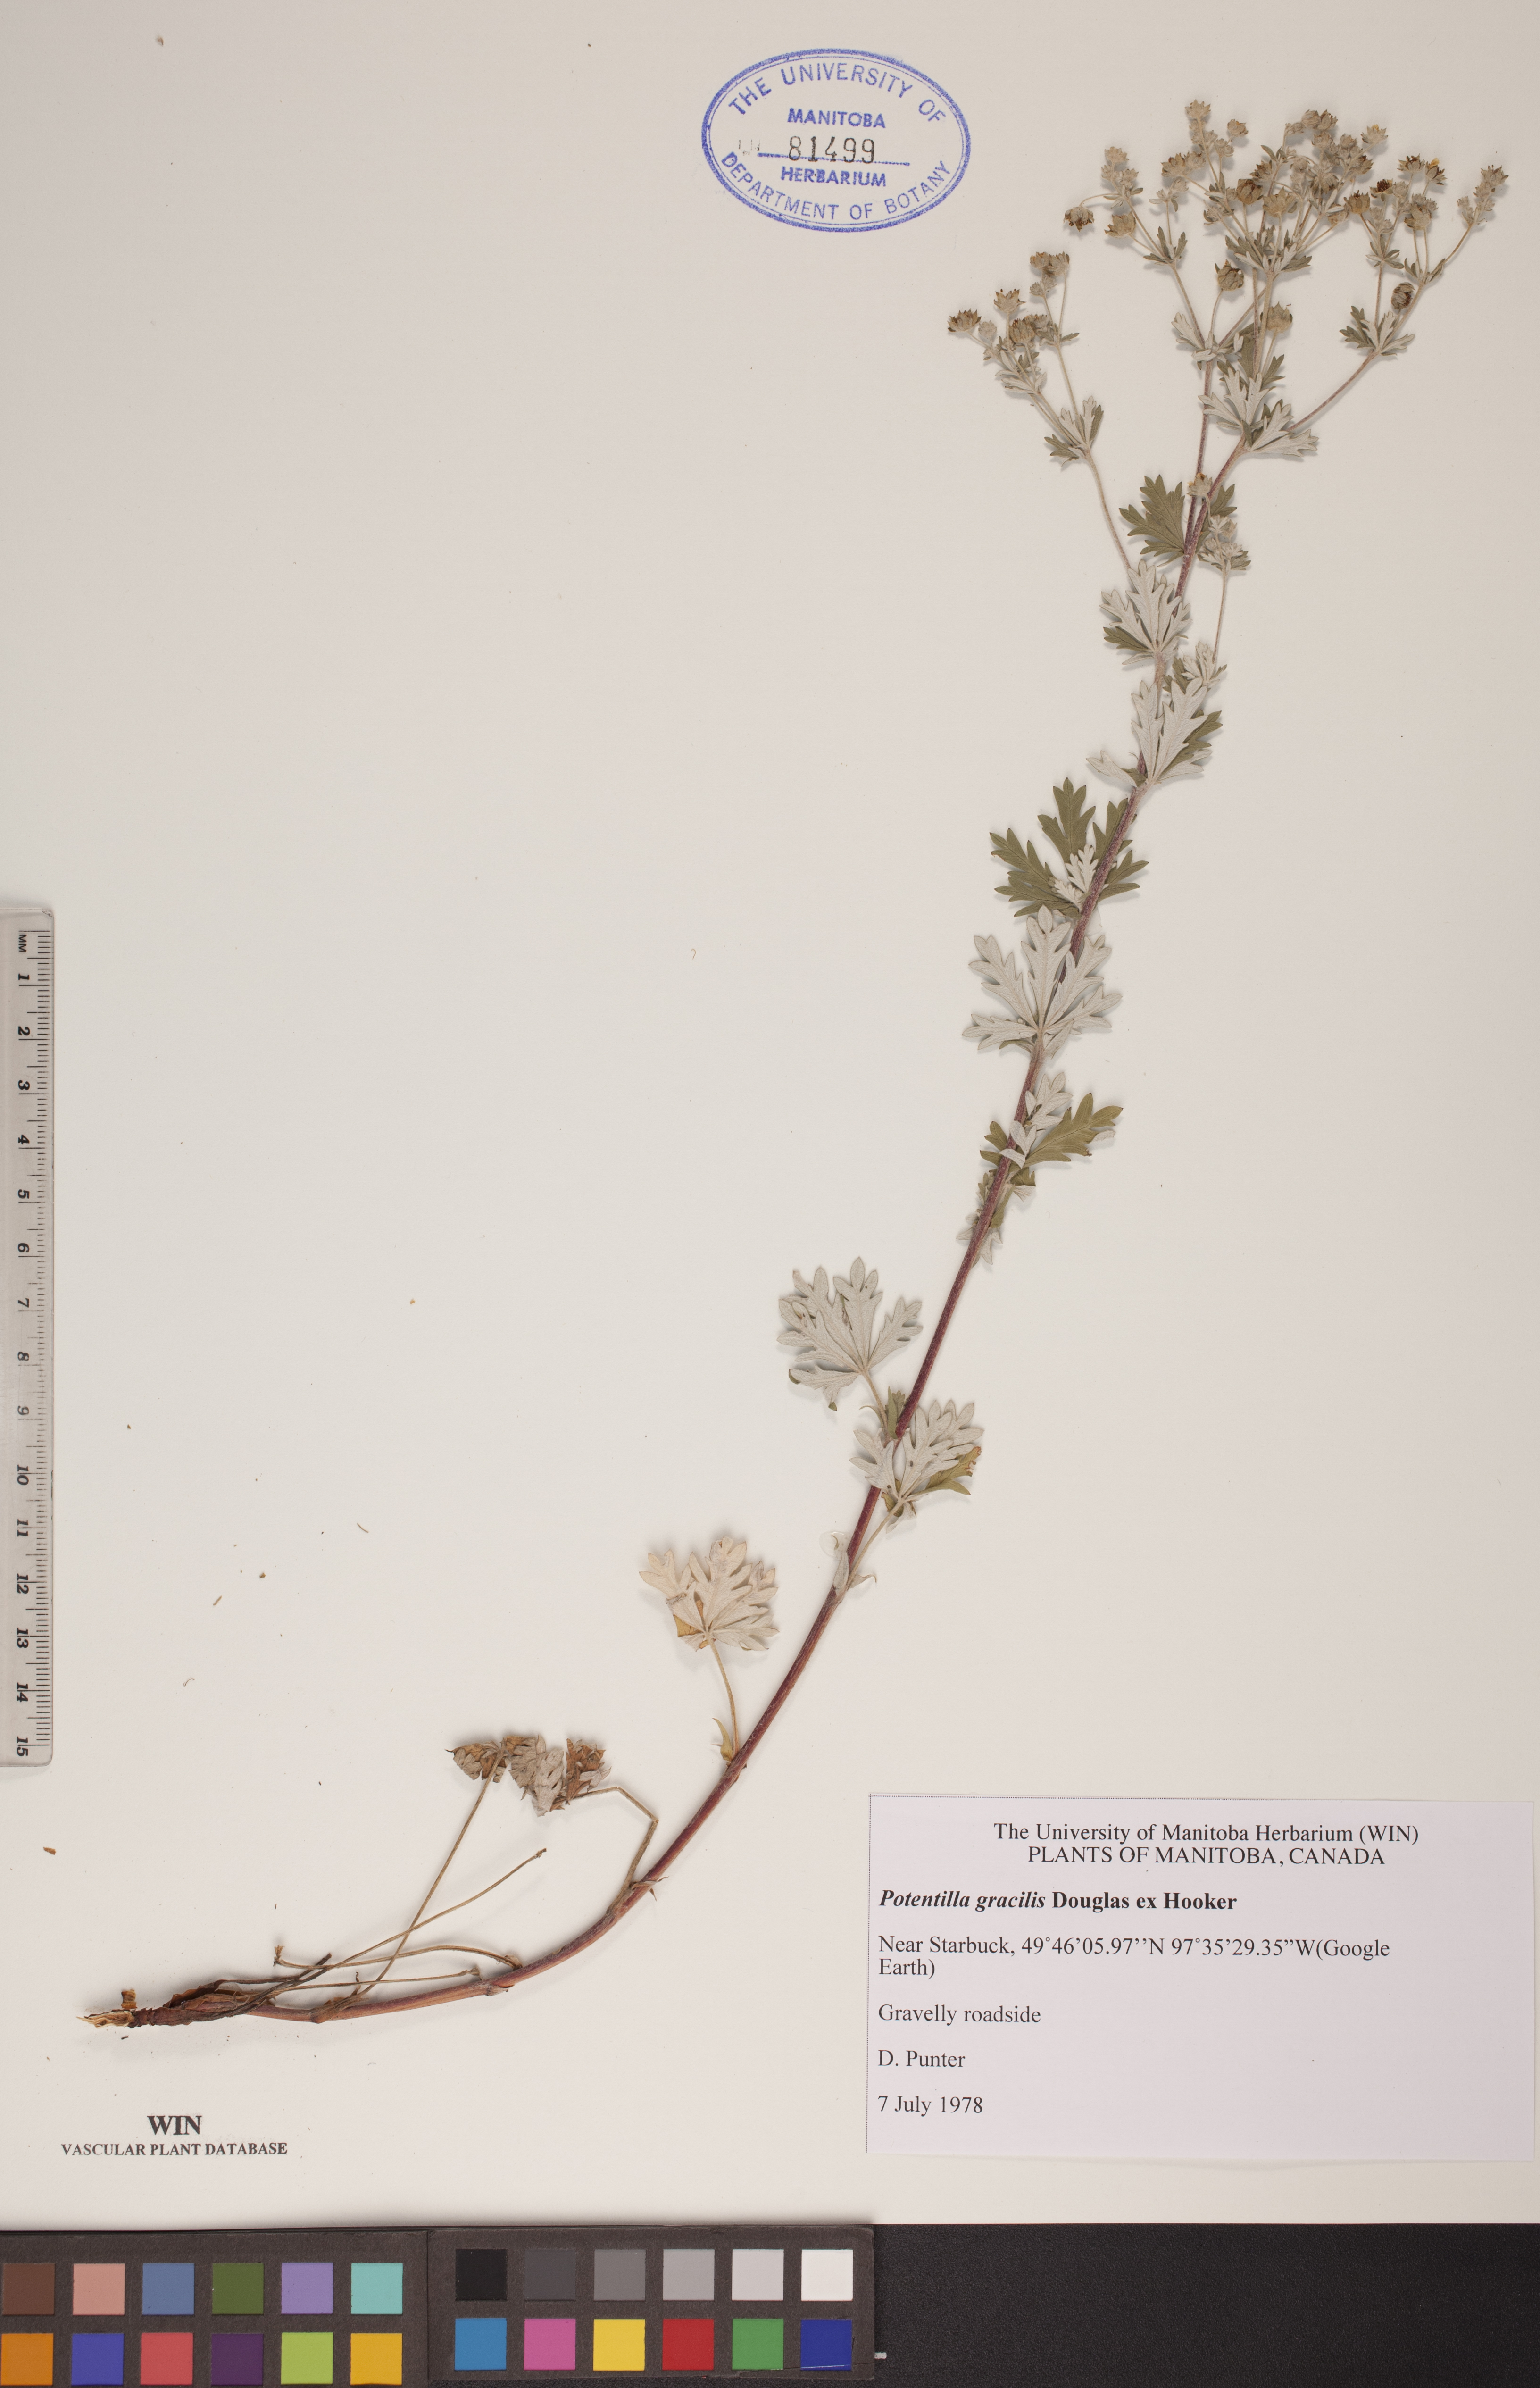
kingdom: Plantae
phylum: Tracheophyta
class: Magnoliopsida
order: Rosales
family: Rosaceae
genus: Potentilla
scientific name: Potentilla gracilis
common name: Graceful cinquefoil
